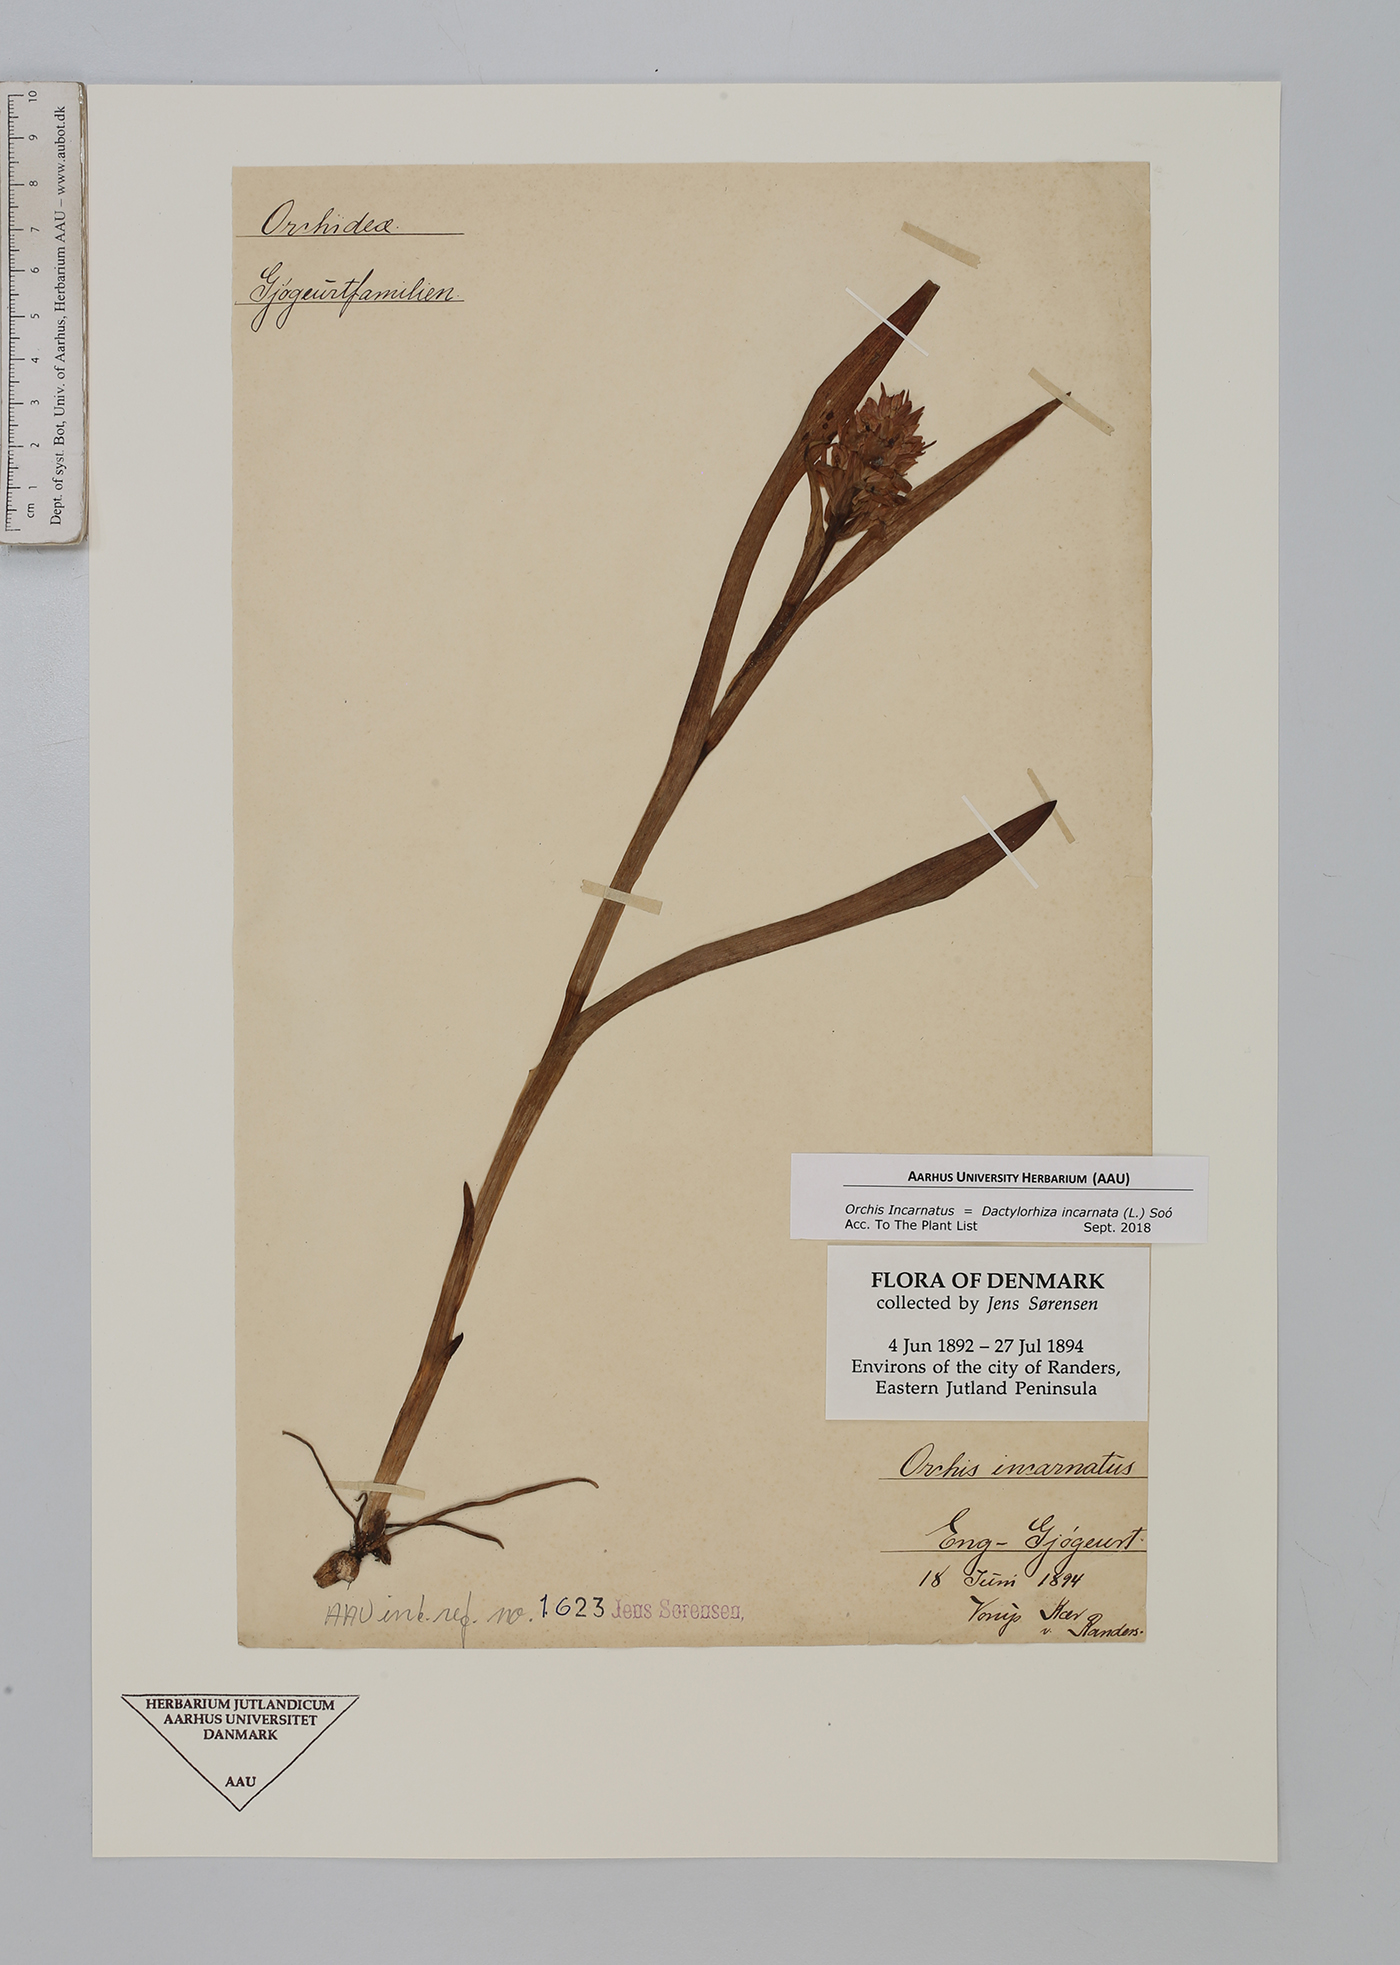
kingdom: Plantae
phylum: Tracheophyta
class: Liliopsida
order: Asparagales
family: Orchidaceae
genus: Dactylorhiza
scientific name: Dactylorhiza incarnata
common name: Early marsh-orchid
